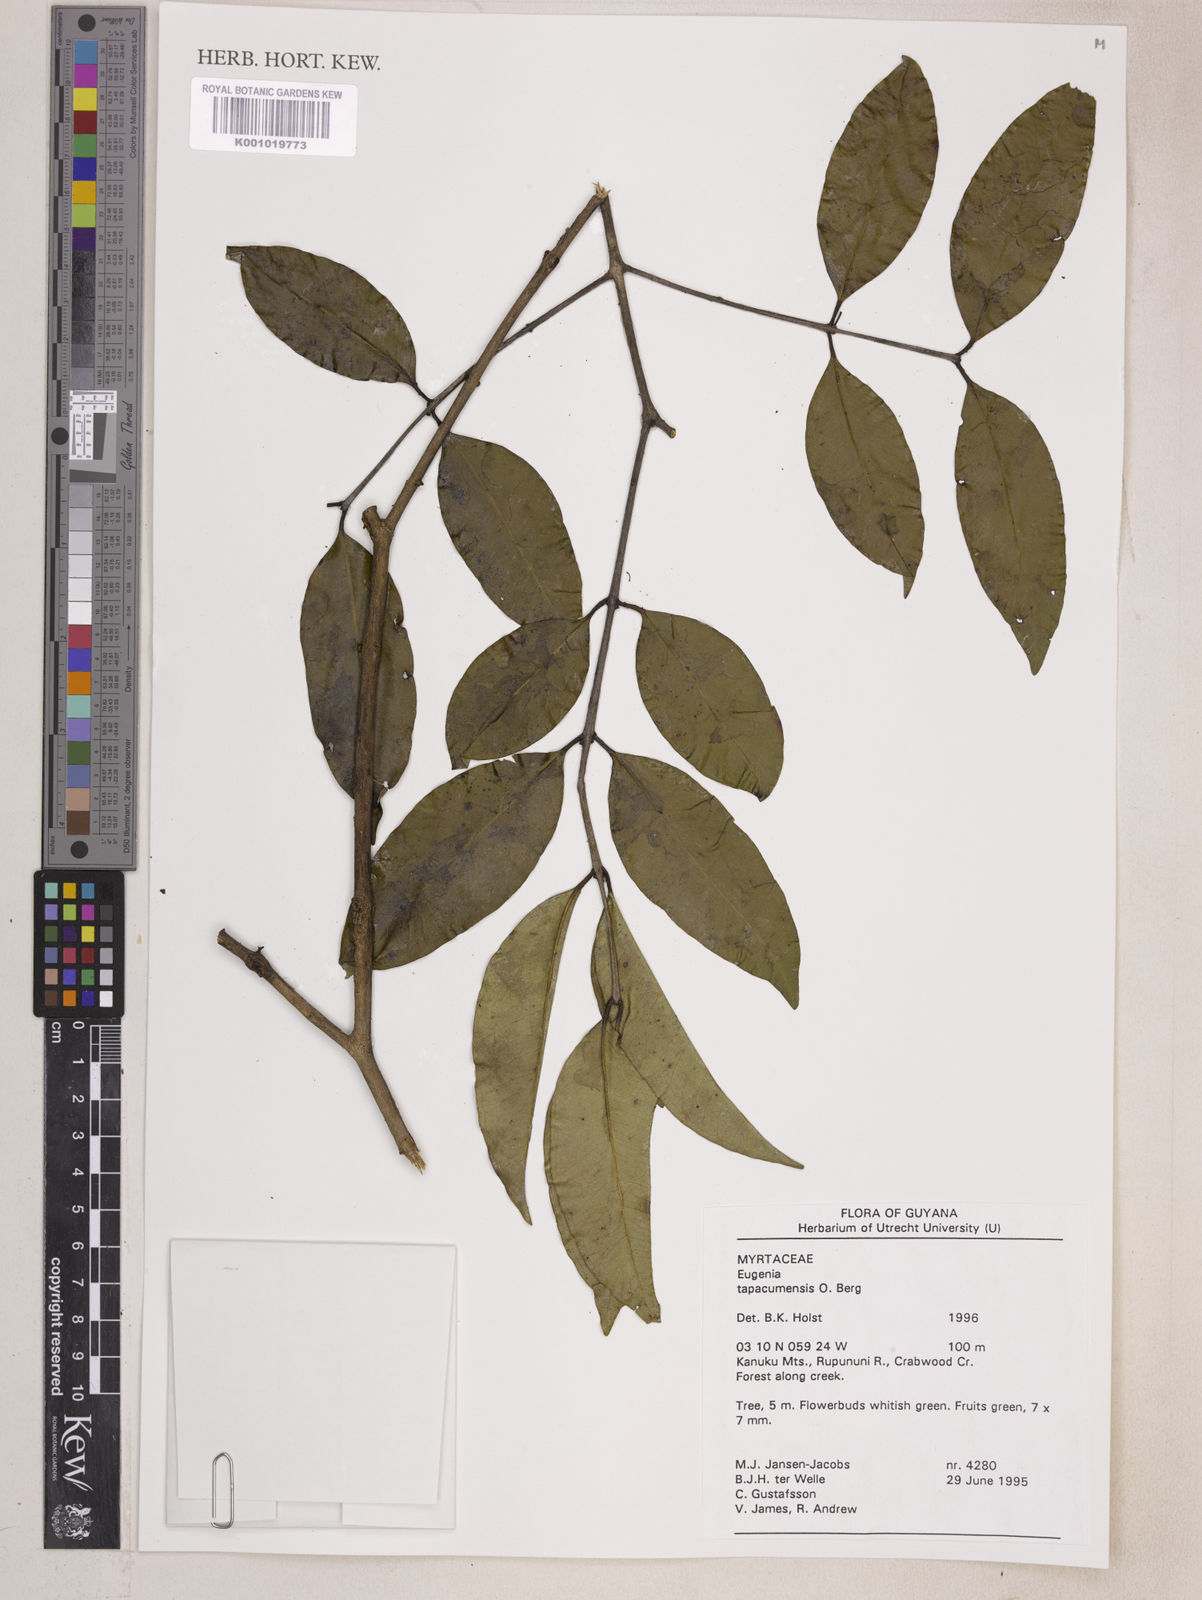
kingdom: Plantae
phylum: Tracheophyta
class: Magnoliopsida
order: Myrtales
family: Myrtaceae
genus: Eugenia
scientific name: Eugenia stictopetala
